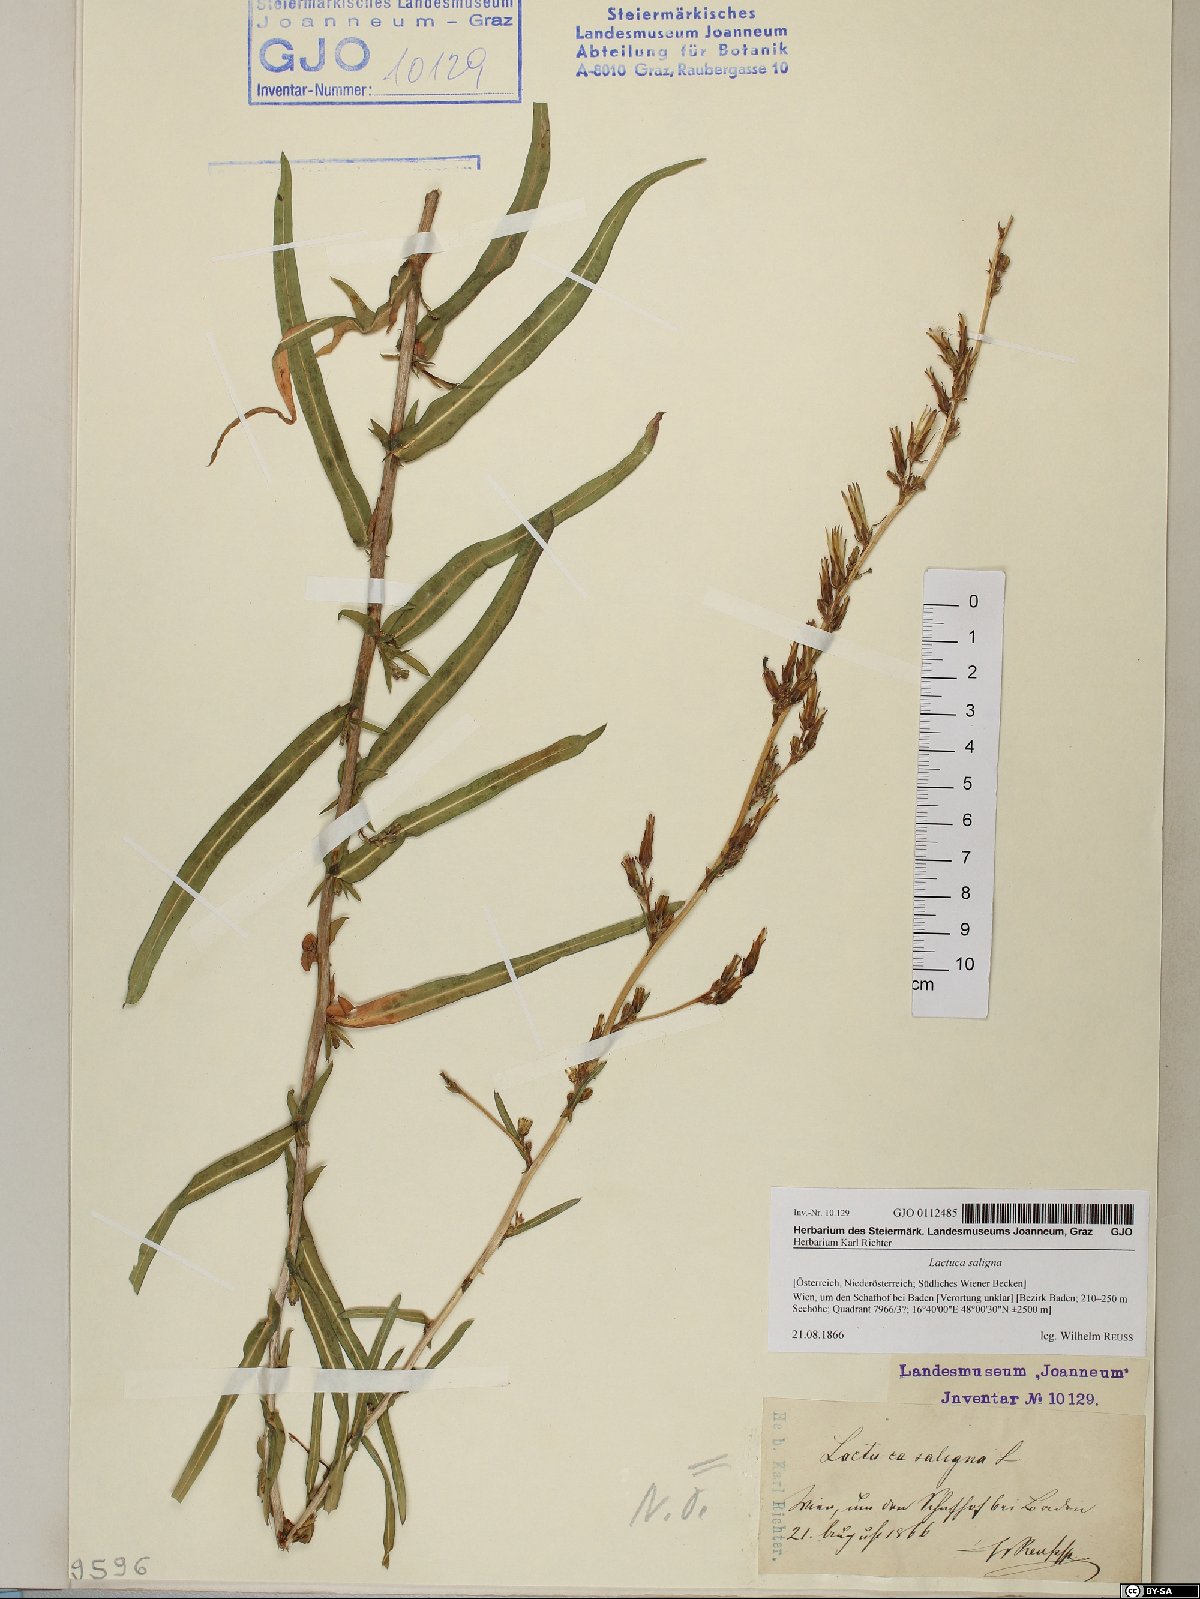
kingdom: Plantae
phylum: Tracheophyta
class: Magnoliopsida
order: Asterales
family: Asteraceae
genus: Lactuca
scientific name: Lactuca saligna
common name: Wild lettuce
